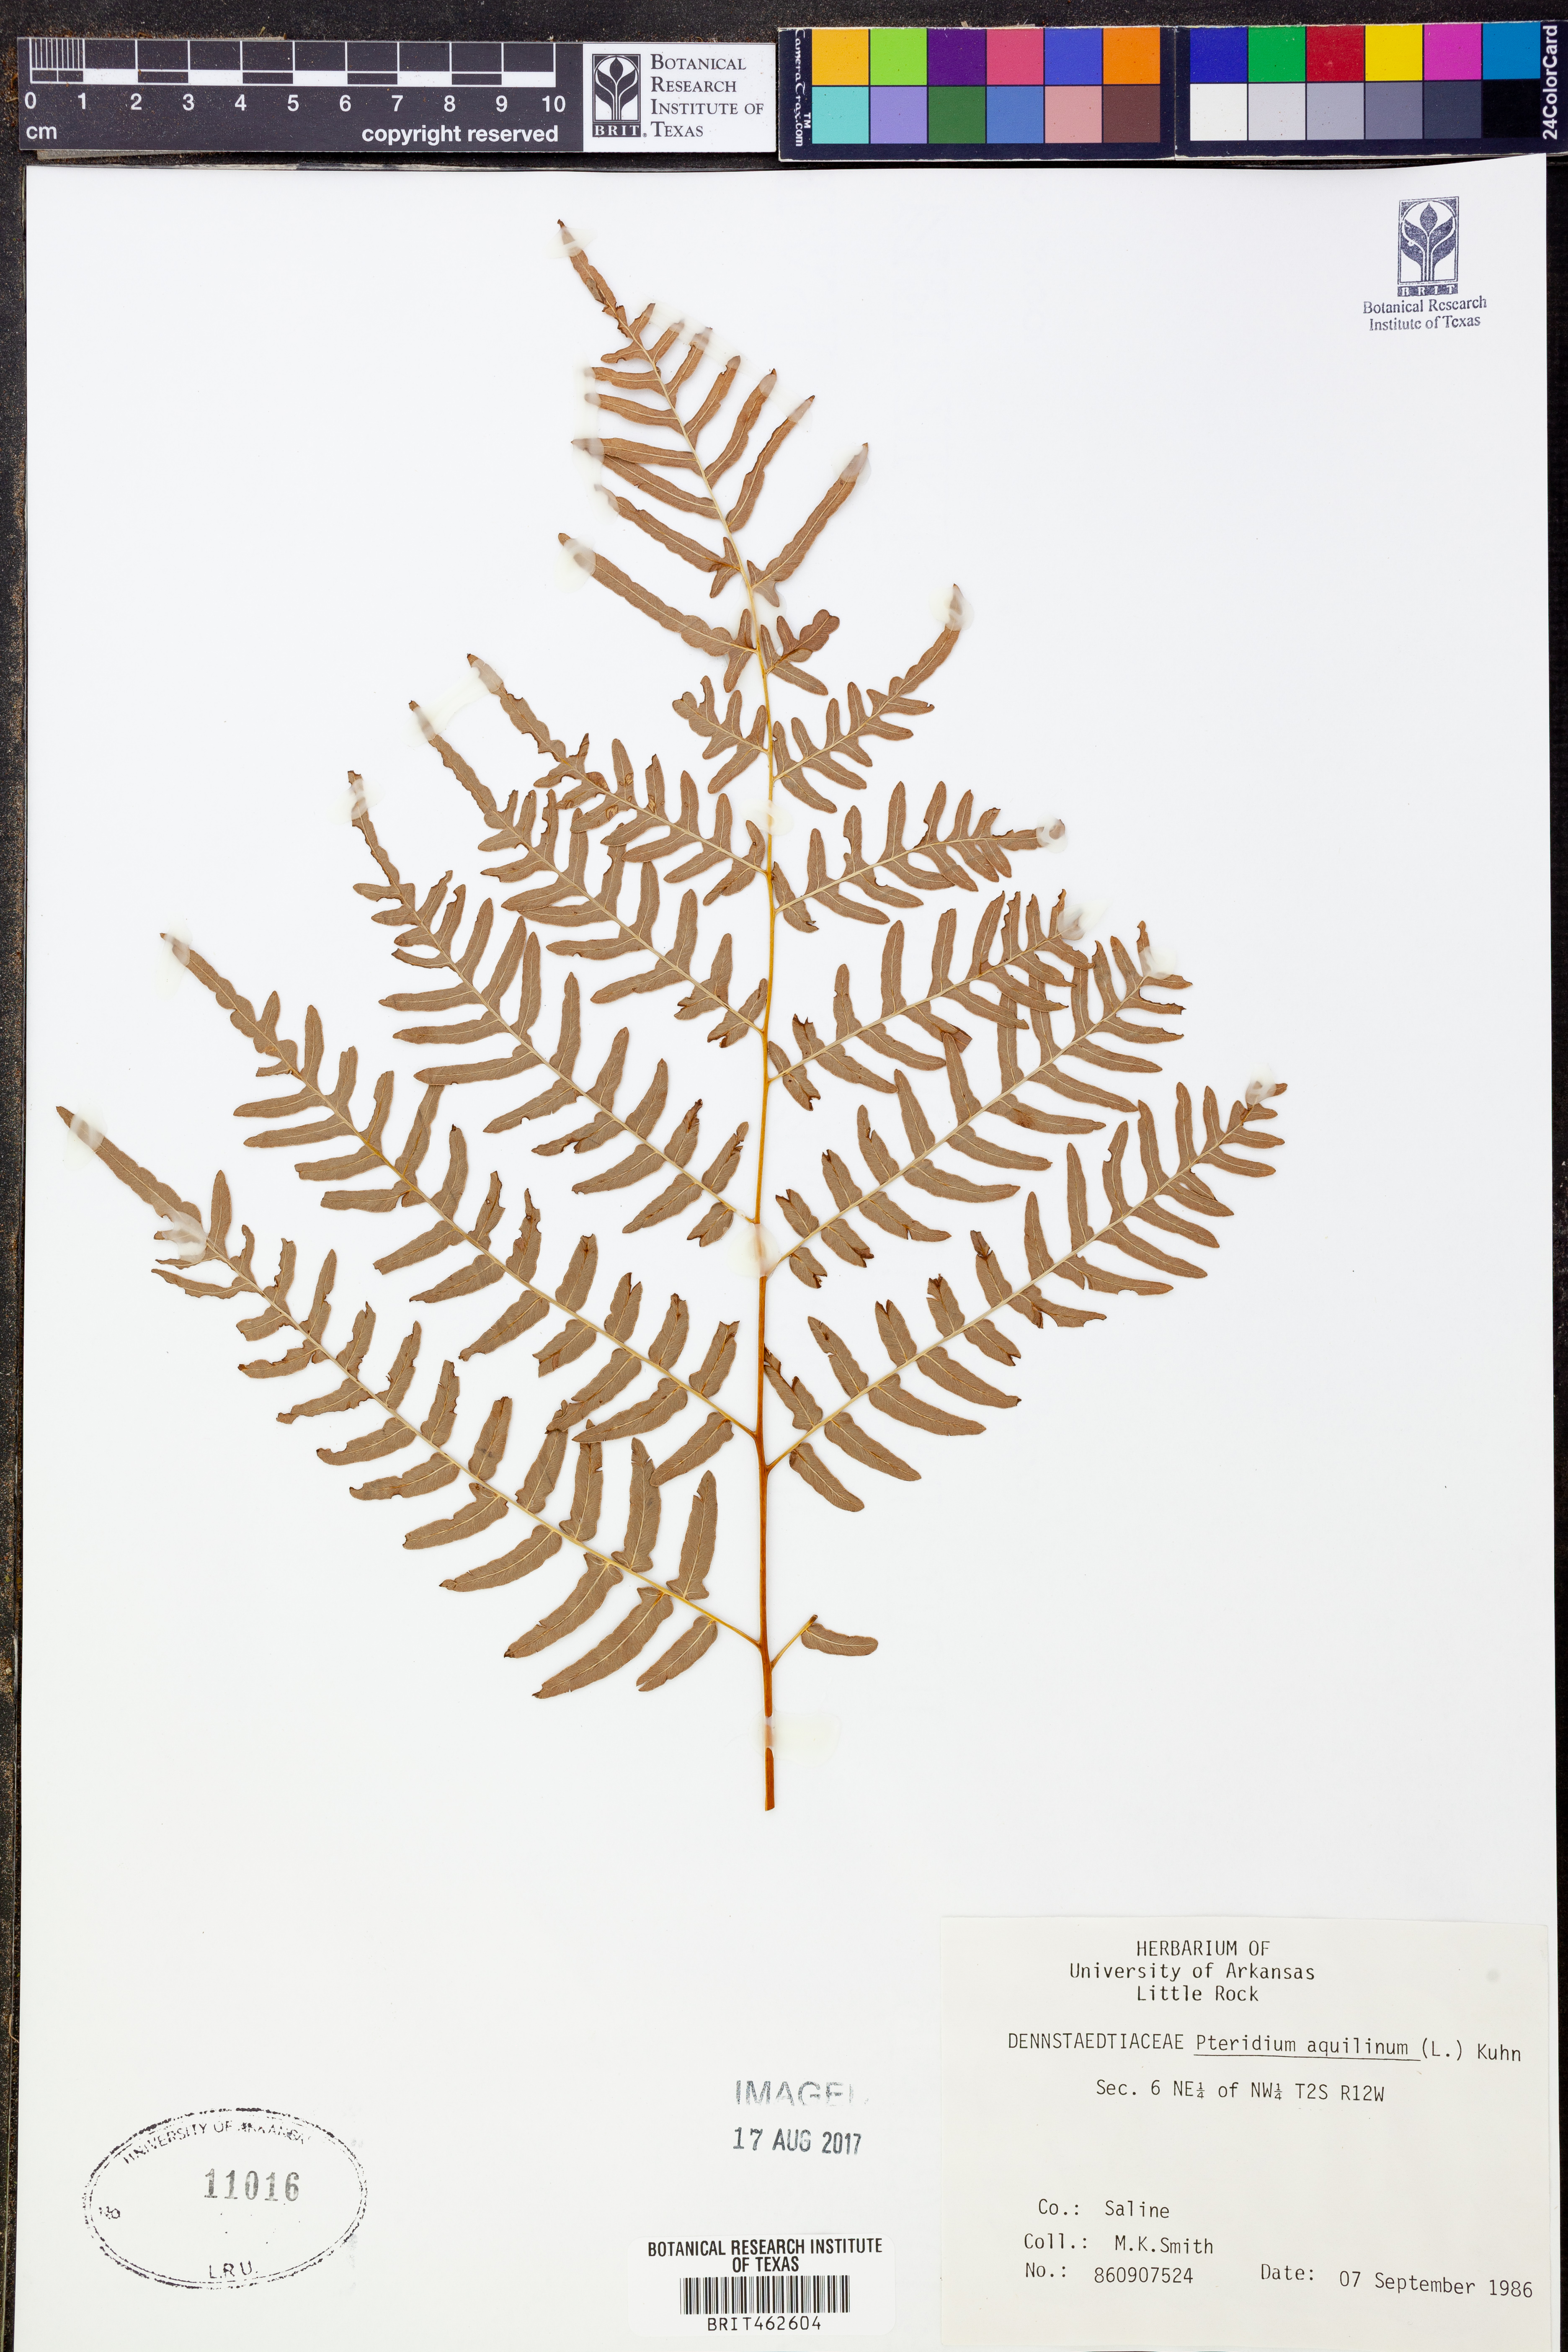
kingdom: Plantae
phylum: Tracheophyta
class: Polypodiopsida
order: Polypodiales
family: Dennstaedtiaceae
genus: Pteridium
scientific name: Pteridium aquilinum
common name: Bracken
